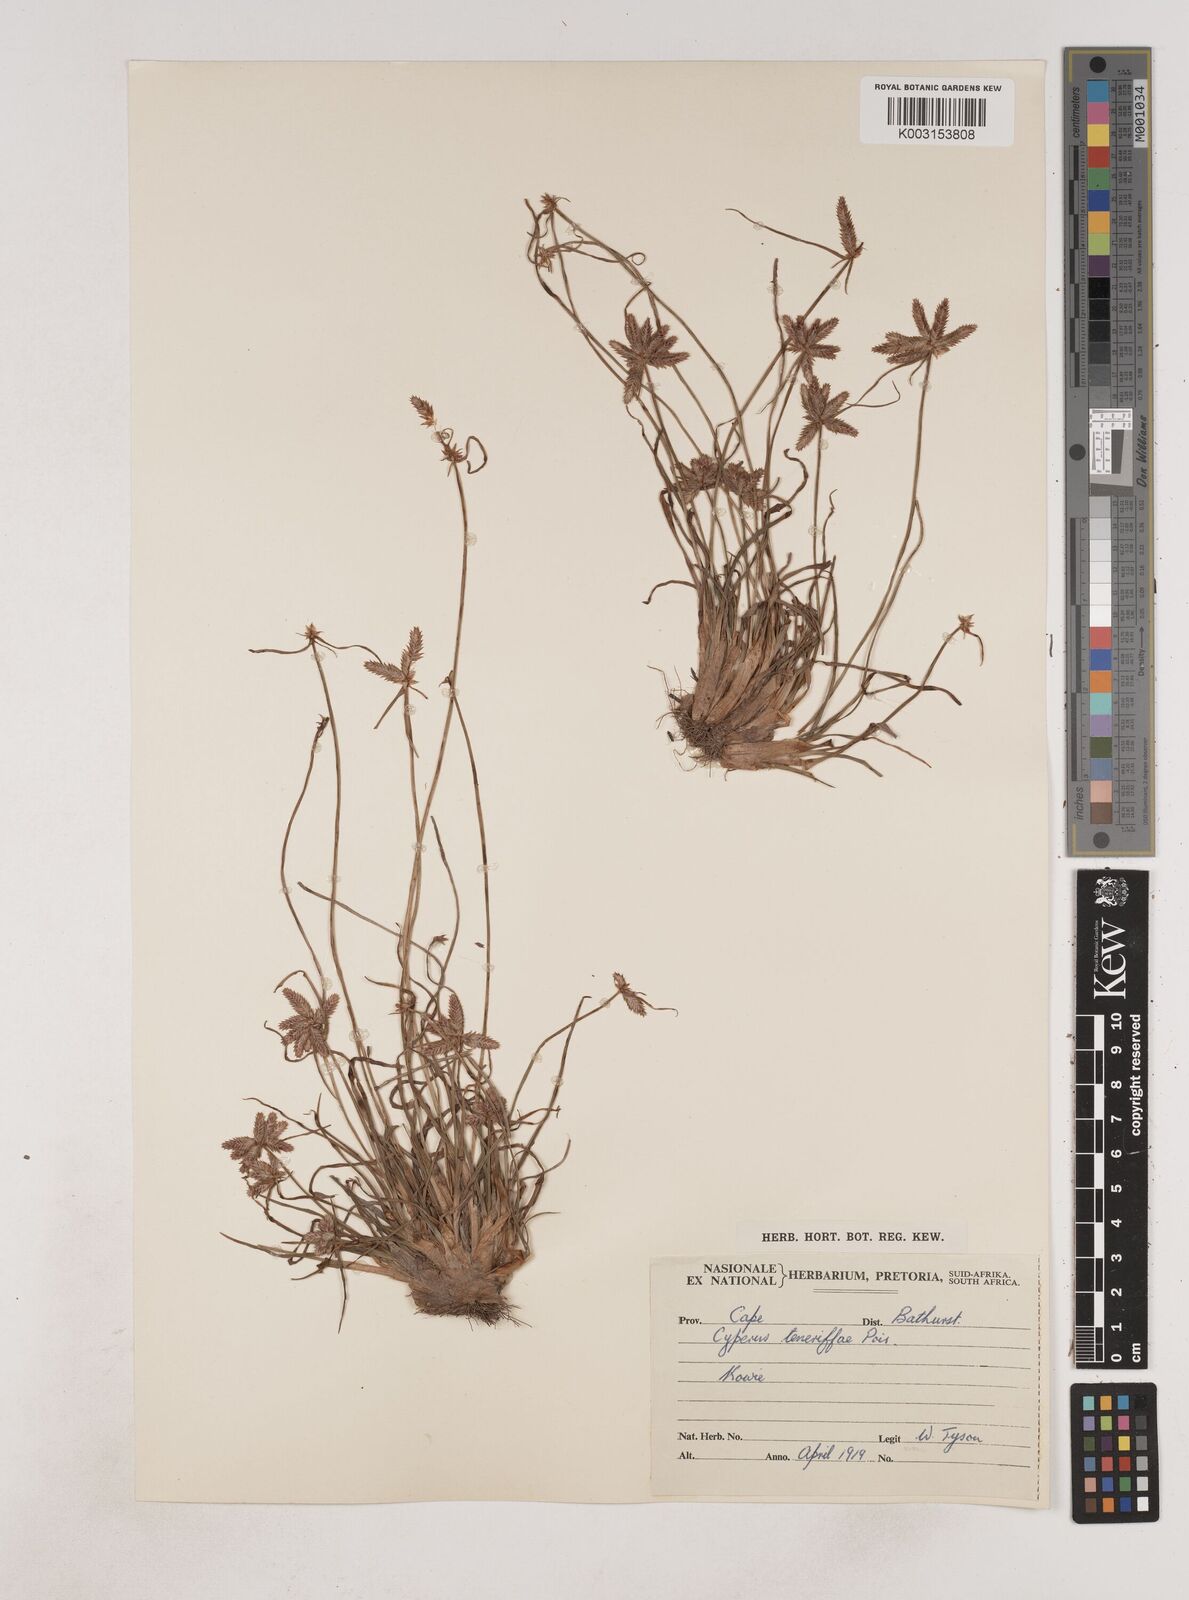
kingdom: Plantae
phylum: Tracheophyta
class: Liliopsida
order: Poales
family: Cyperaceae
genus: Cyperus
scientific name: Cyperus rubicundus
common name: Coco-grass
